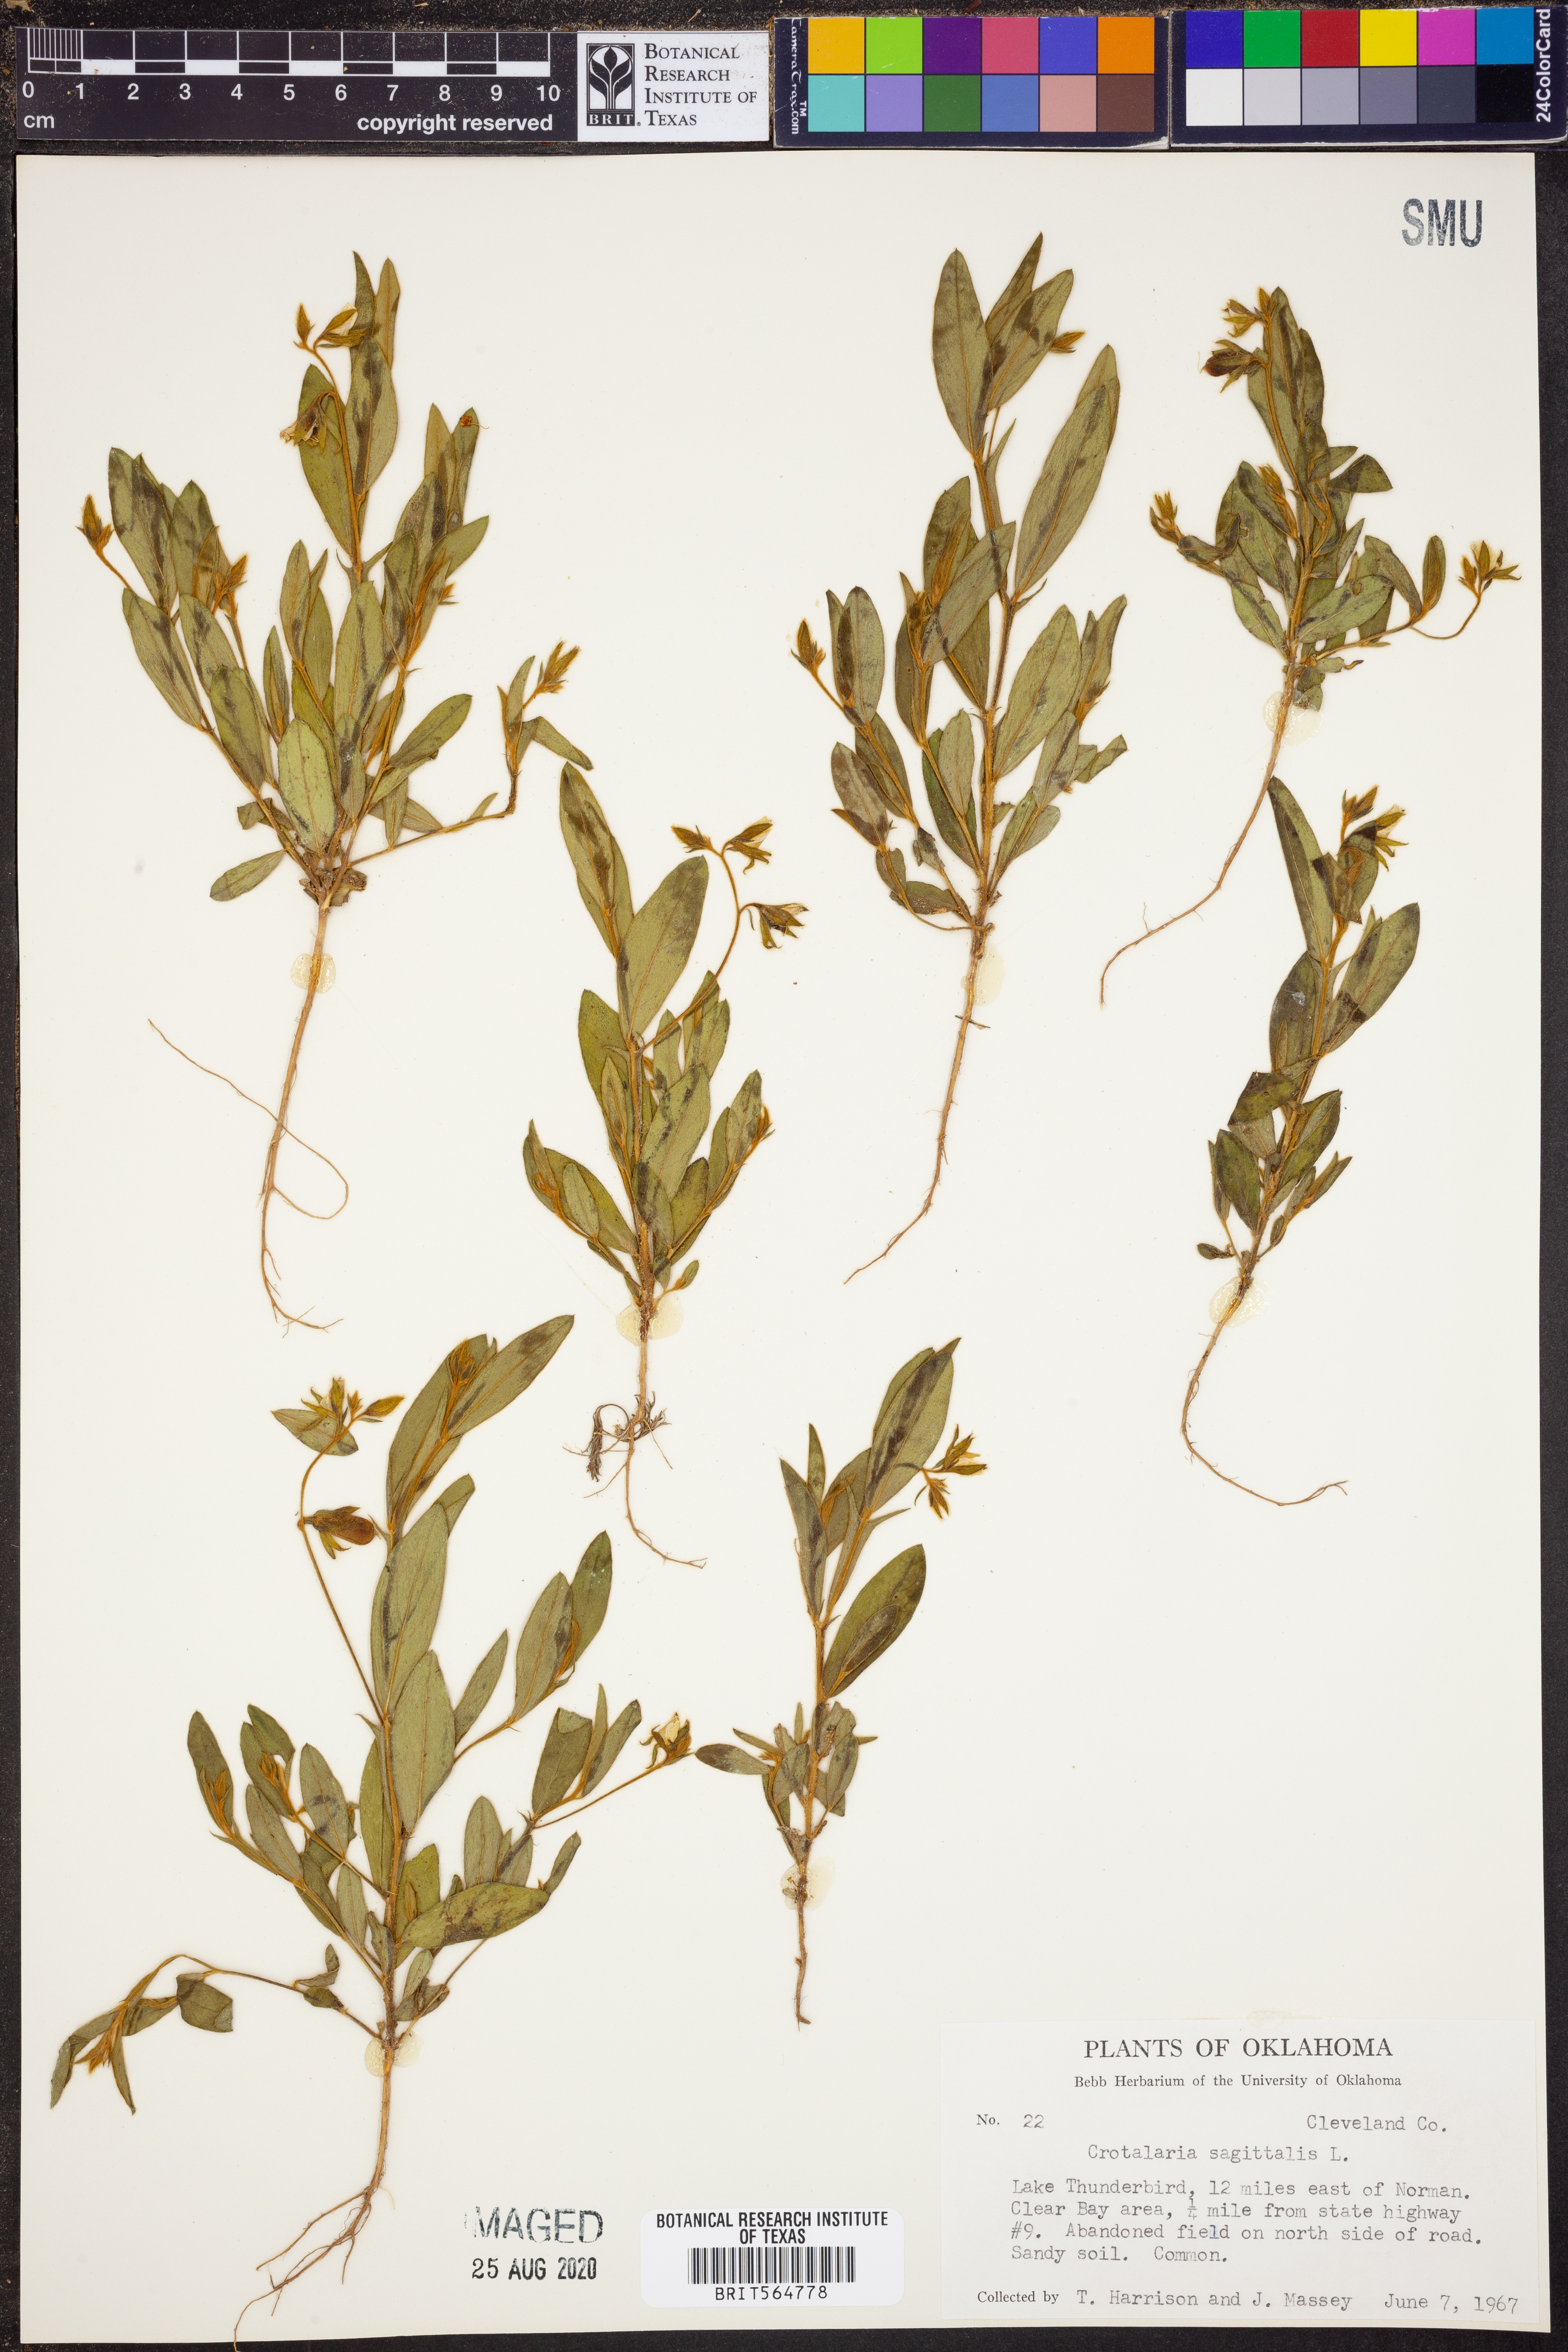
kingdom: Plantae
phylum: Tracheophyta
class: Magnoliopsida
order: Fabales
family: Fabaceae
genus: Crotalaria
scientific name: Crotalaria sagittalis
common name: Arrowhead rattlebox
